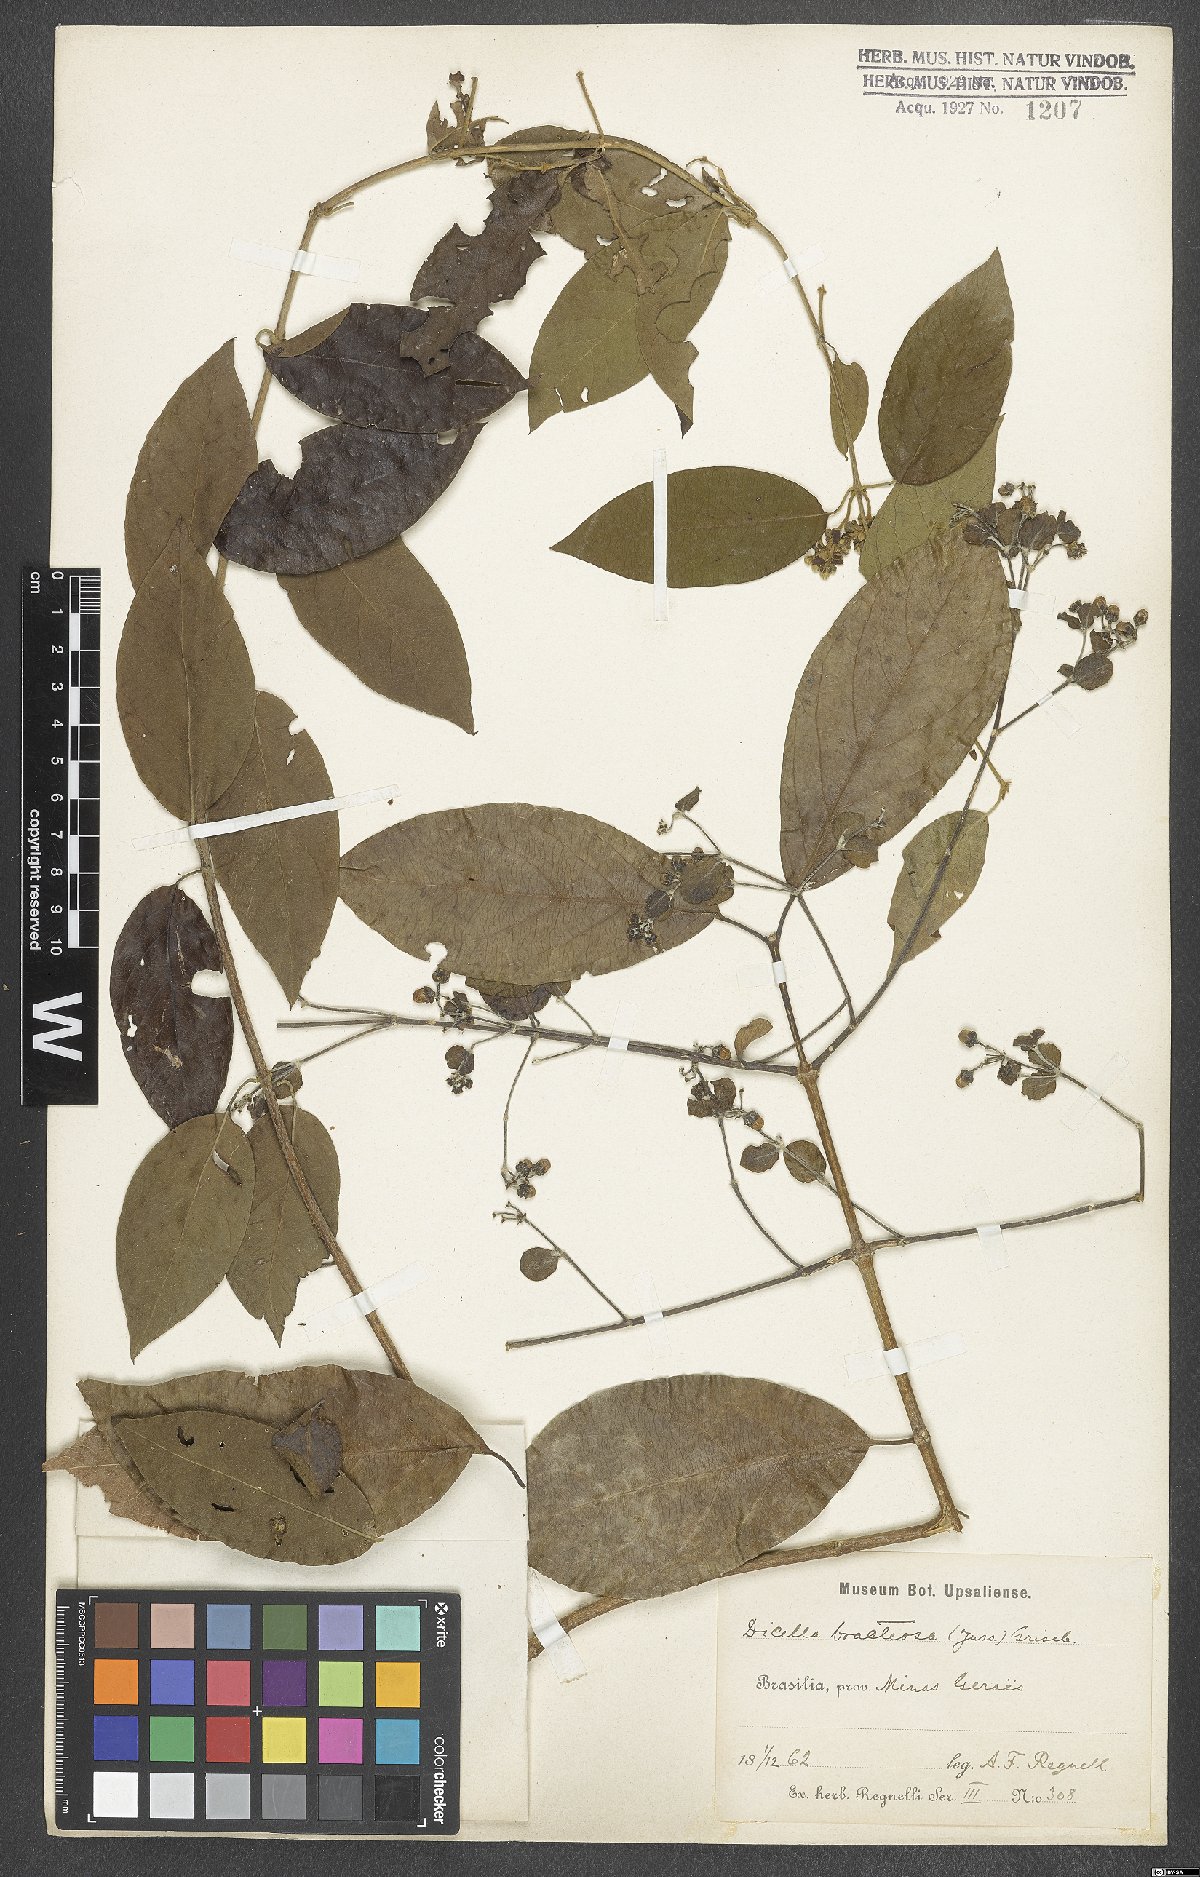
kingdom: Plantae
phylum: Tracheophyta
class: Magnoliopsida
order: Malpighiales
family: Malpighiaceae
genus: Dicella
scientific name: Dicella bracteosa
